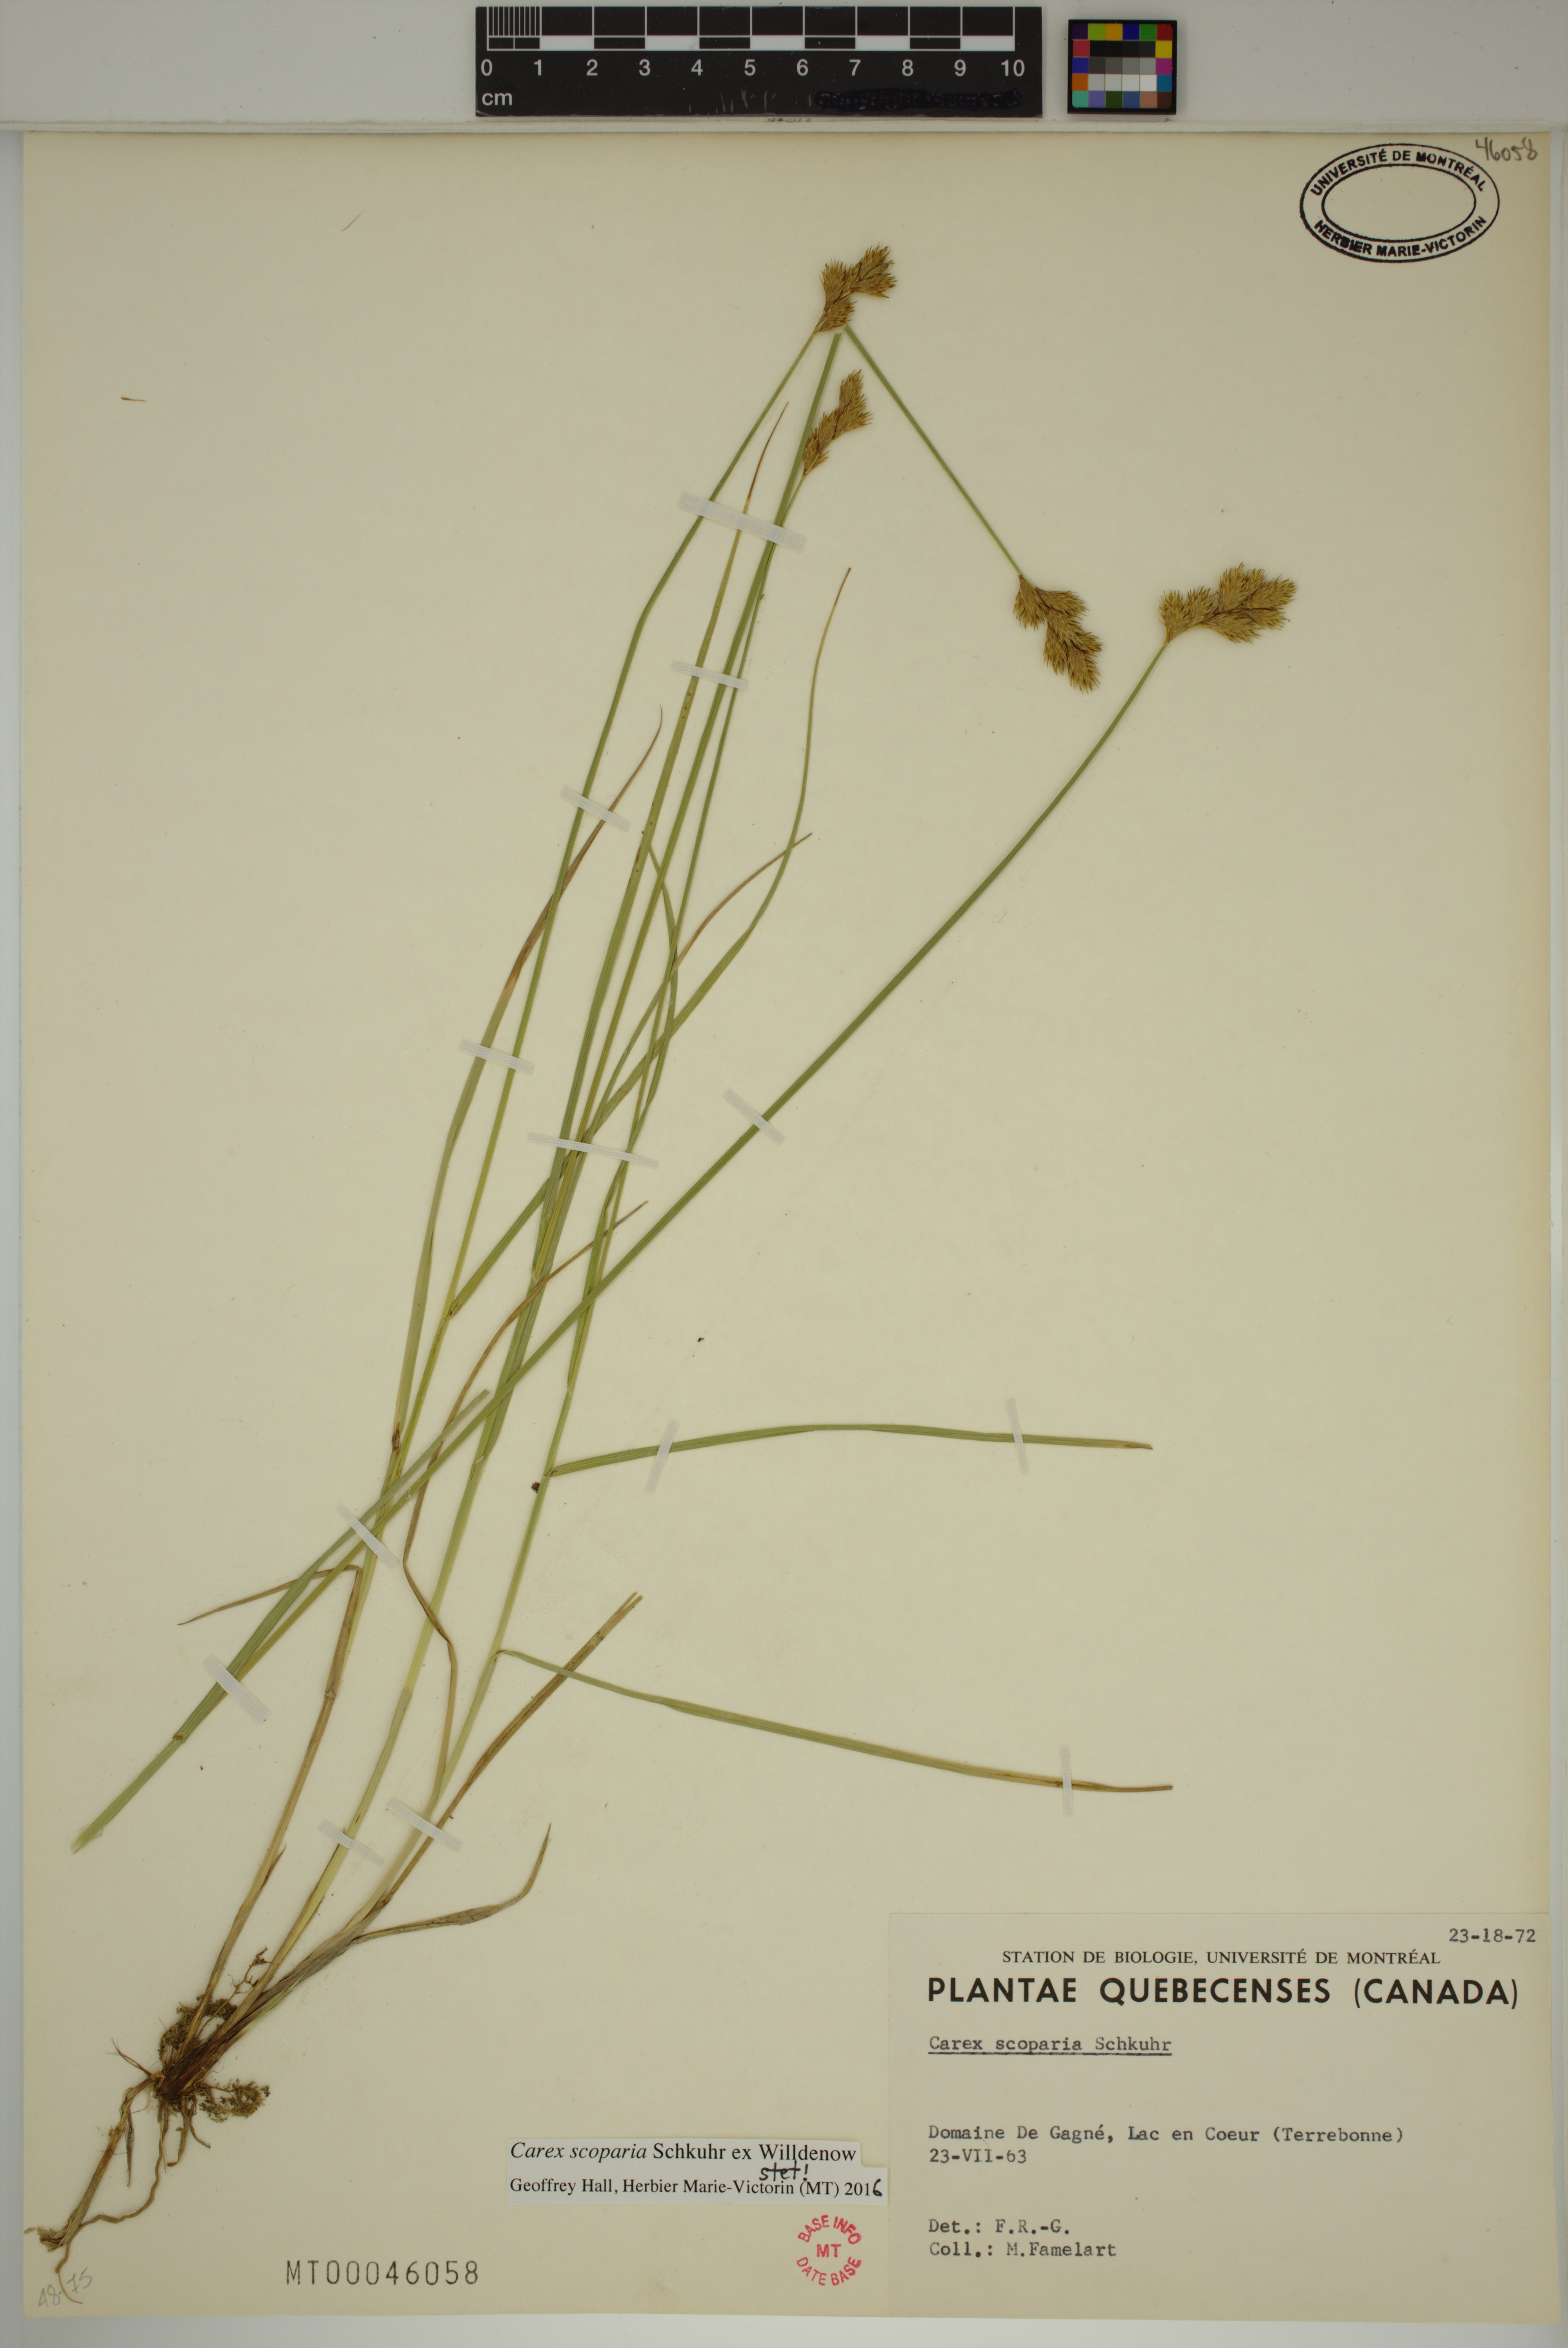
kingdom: Plantae
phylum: Tracheophyta
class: Liliopsida
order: Poales
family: Cyperaceae
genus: Carex
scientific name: Carex scoparia
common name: Broom sedge
